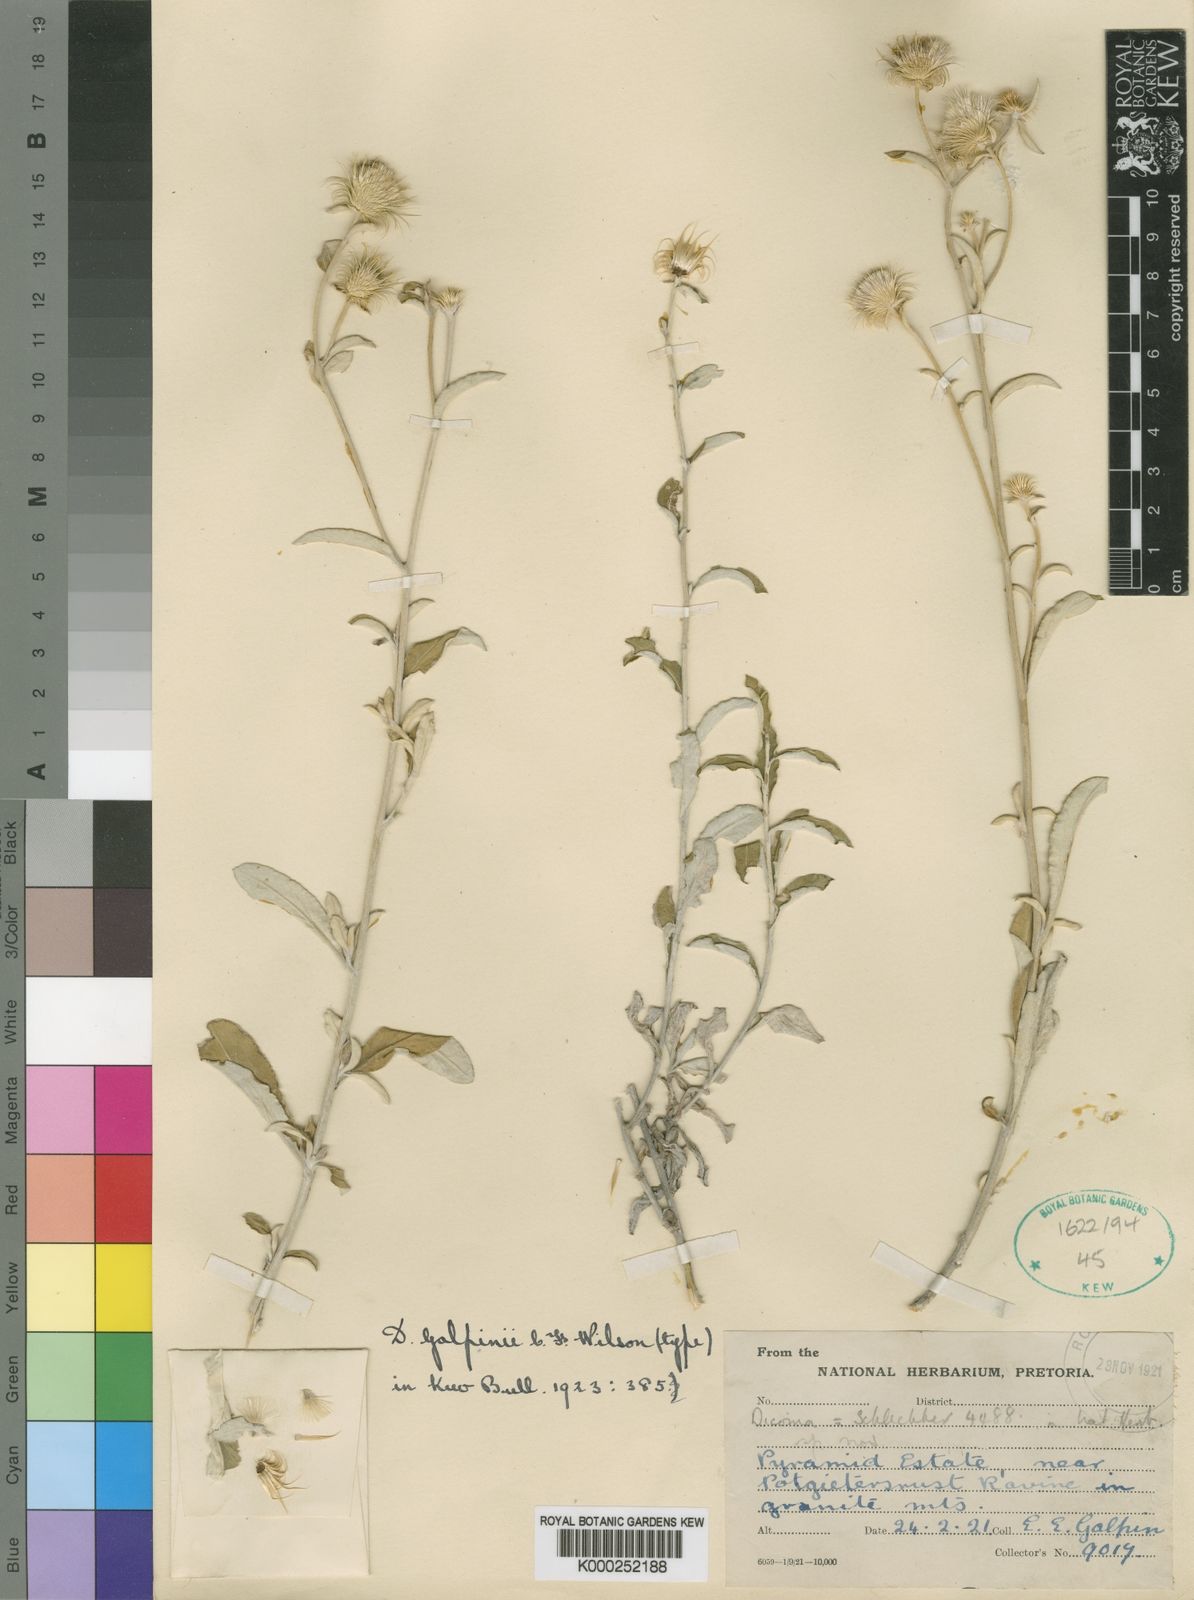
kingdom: Plantae
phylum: Tracheophyta
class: Magnoliopsida
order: Asterales
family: Asteraceae
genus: Dicoma
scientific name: Dicoma galpinii
